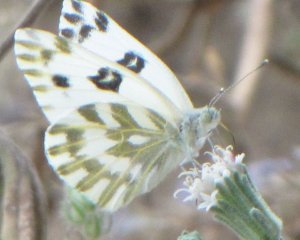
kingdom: Animalia
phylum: Arthropoda
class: Insecta
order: Lepidoptera
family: Pieridae
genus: Pontia
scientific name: Pontia beckerii
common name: Becker's White
